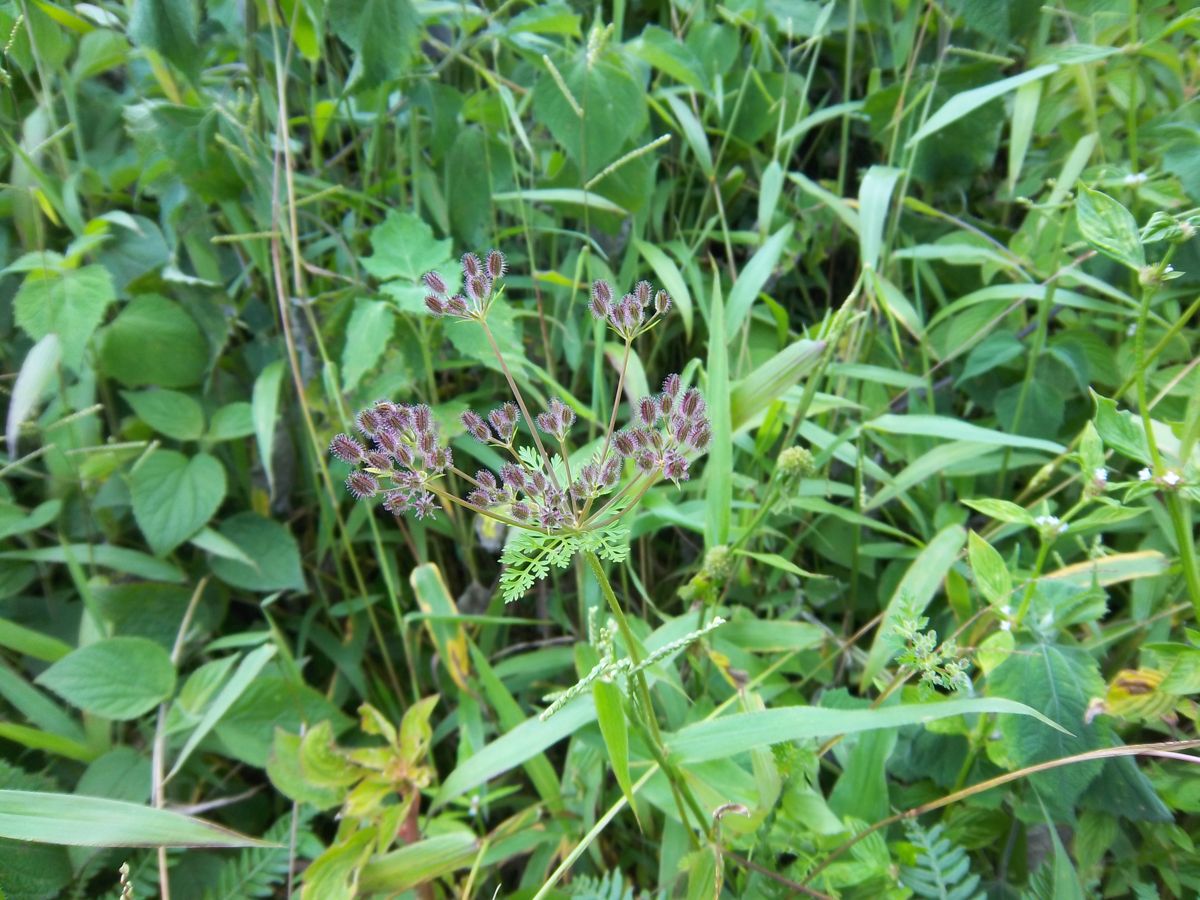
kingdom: Plantae
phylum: Tracheophyta
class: Magnoliopsida
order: Apiales
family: Apiaceae
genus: Daucus
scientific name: Daucus montanus
